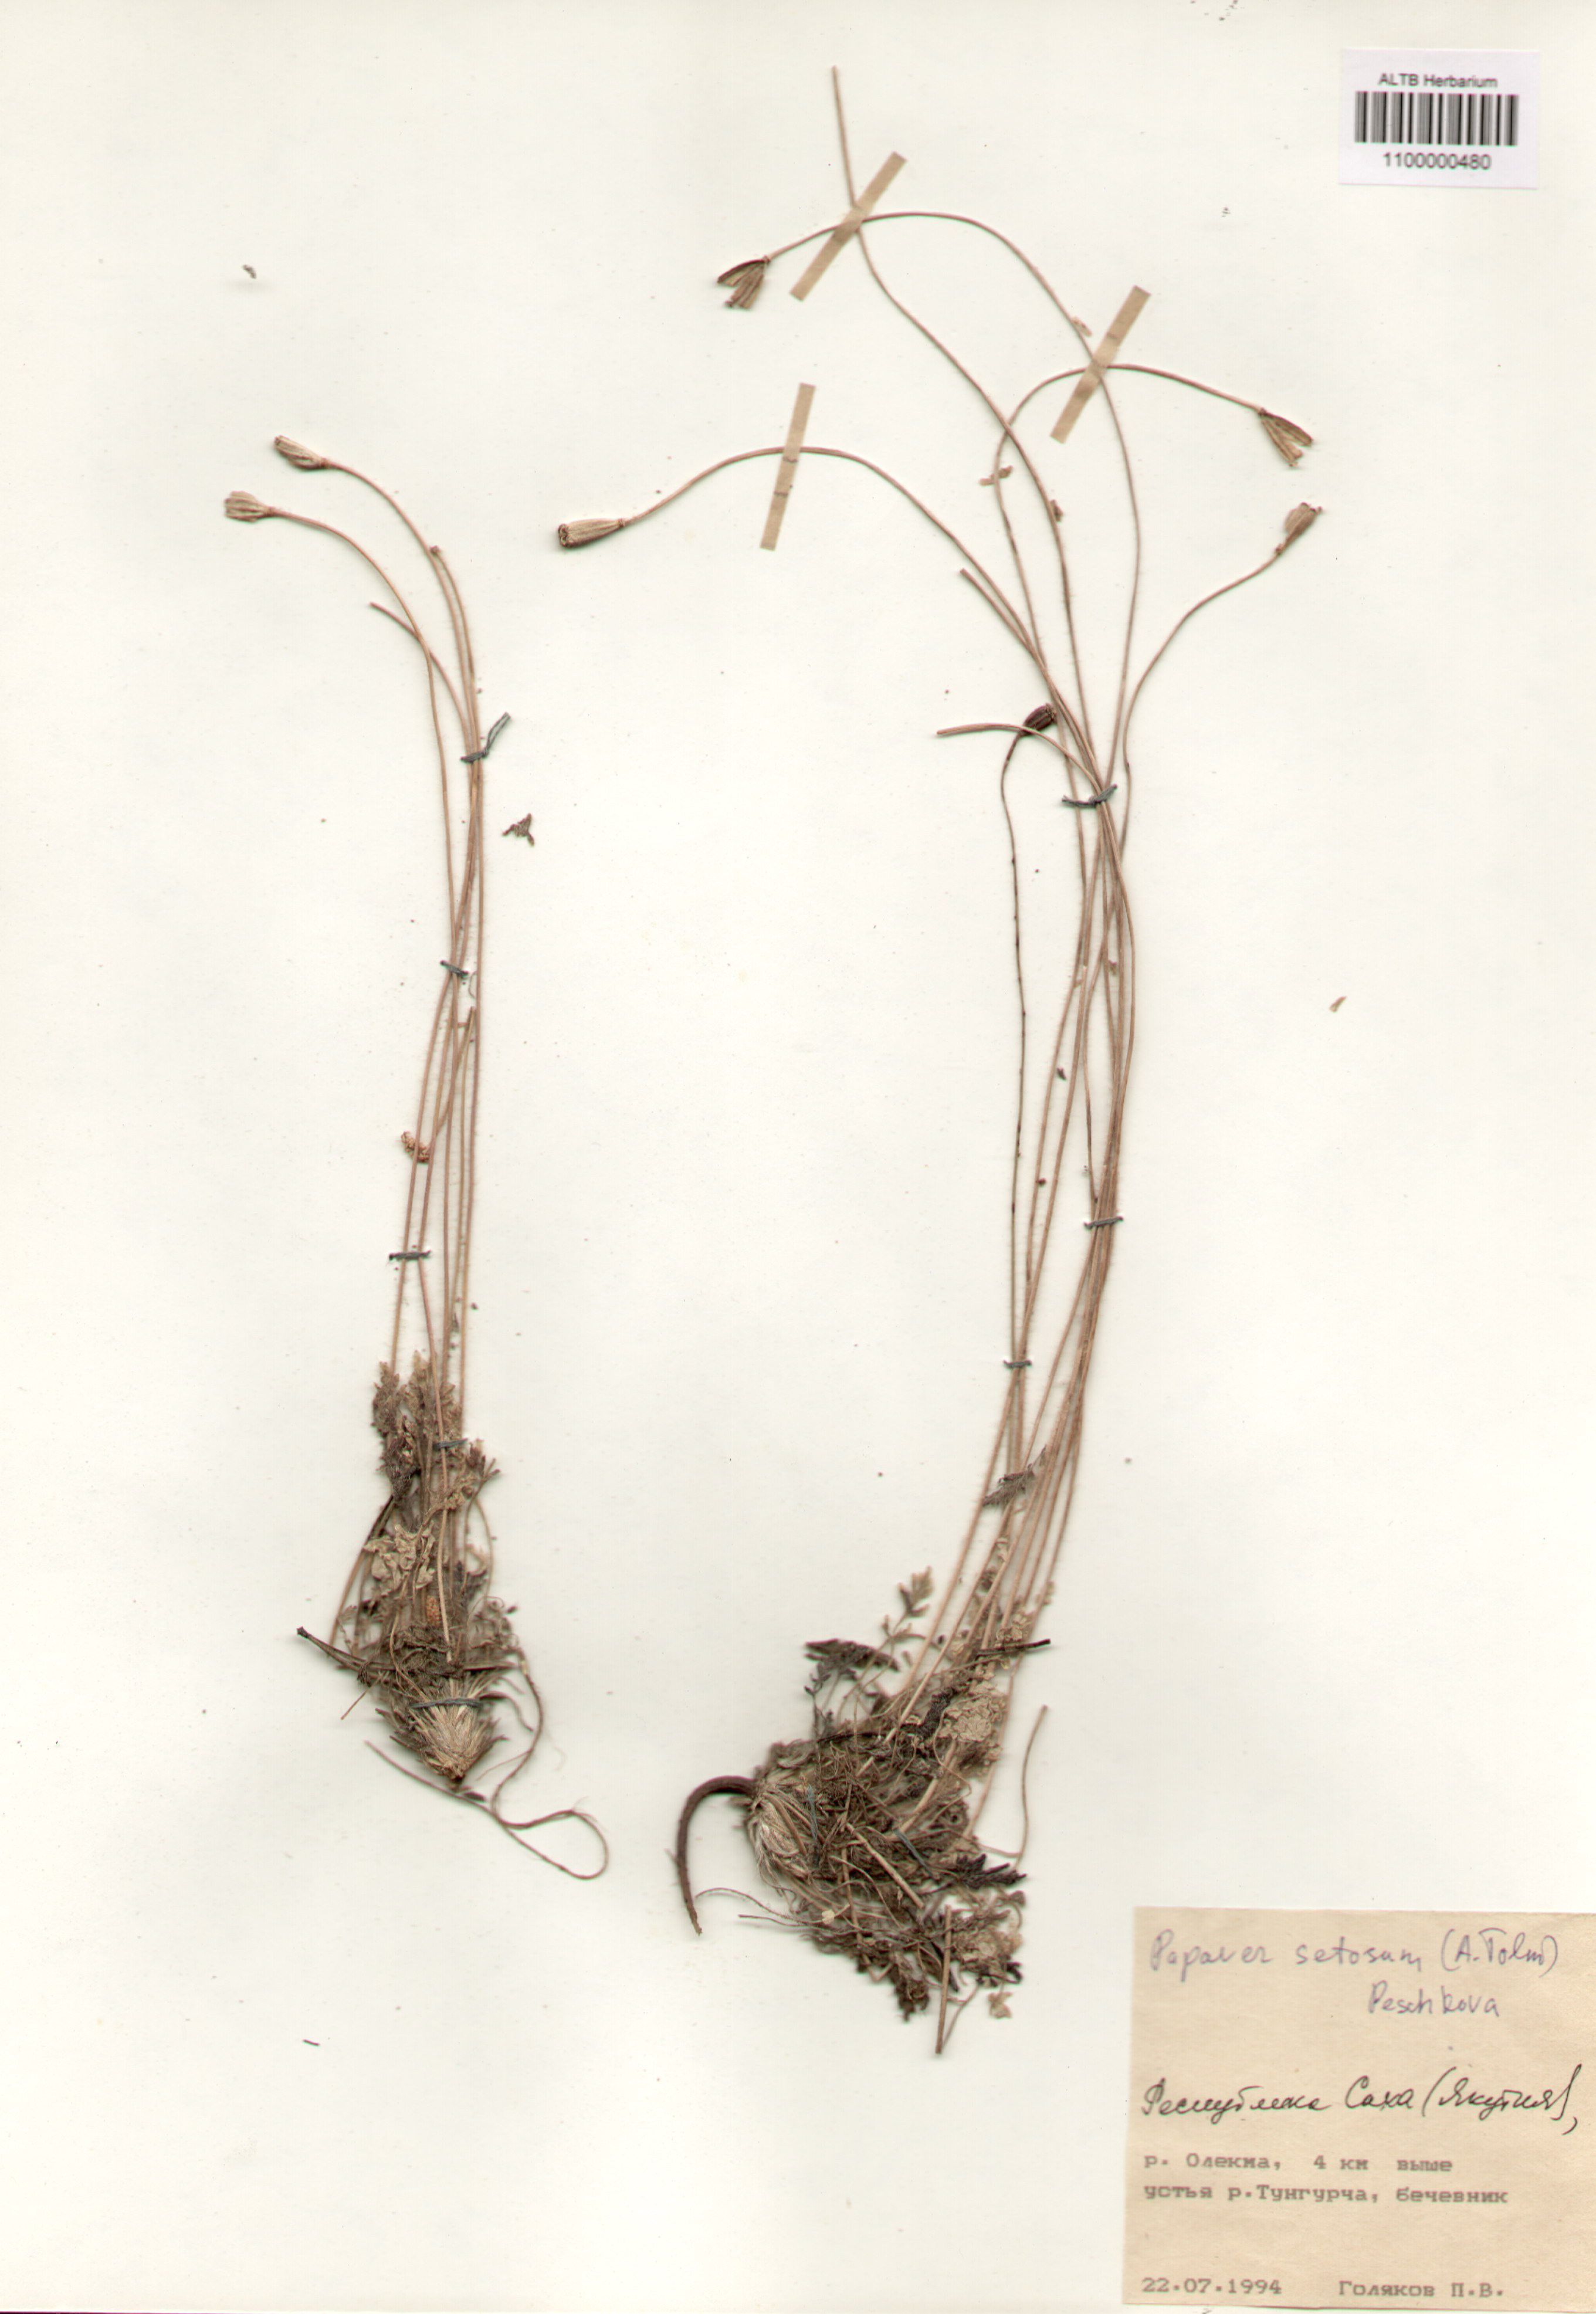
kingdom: Plantae
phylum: Tracheophyta
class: Magnoliopsida
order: Ranunculales
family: Papaveraceae
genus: Papaver
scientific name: Papaver setosum
